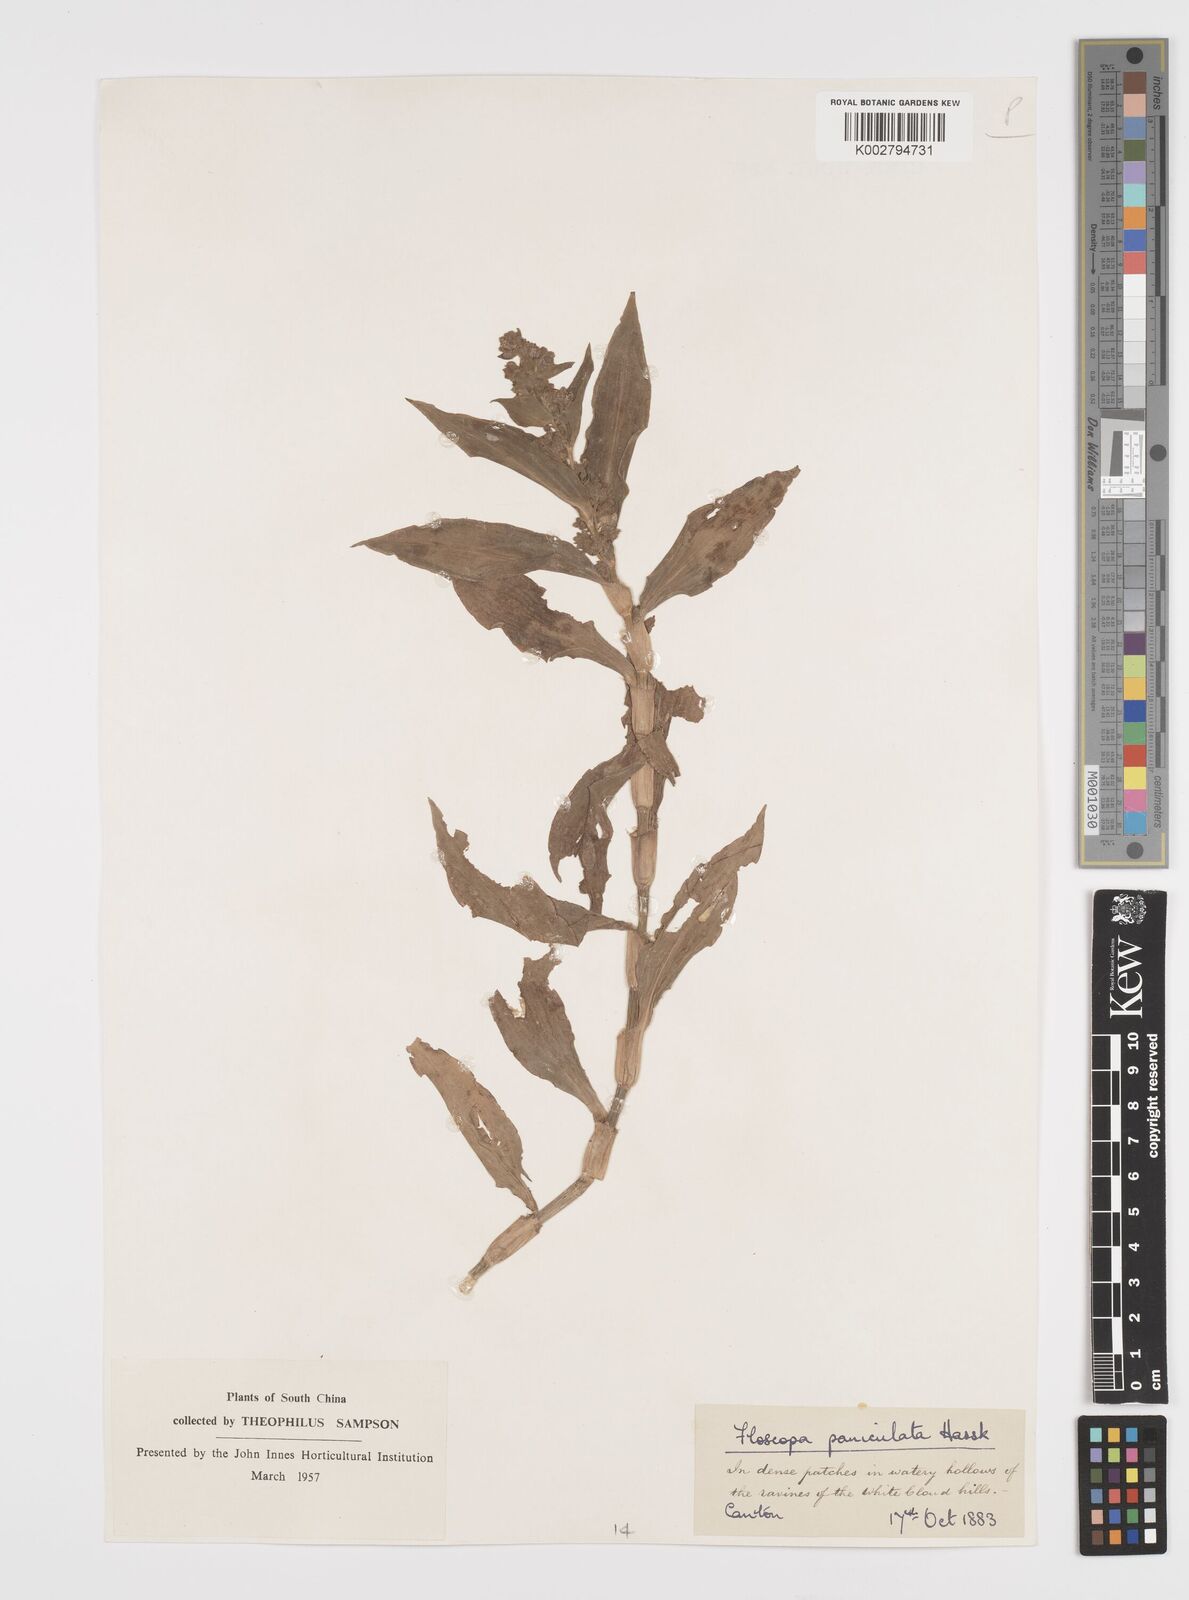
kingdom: Plantae
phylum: Tracheophyta
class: Liliopsida
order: Commelinales
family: Commelinaceae
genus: Floscopa
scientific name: Floscopa scandens
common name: Climbing flower cup
